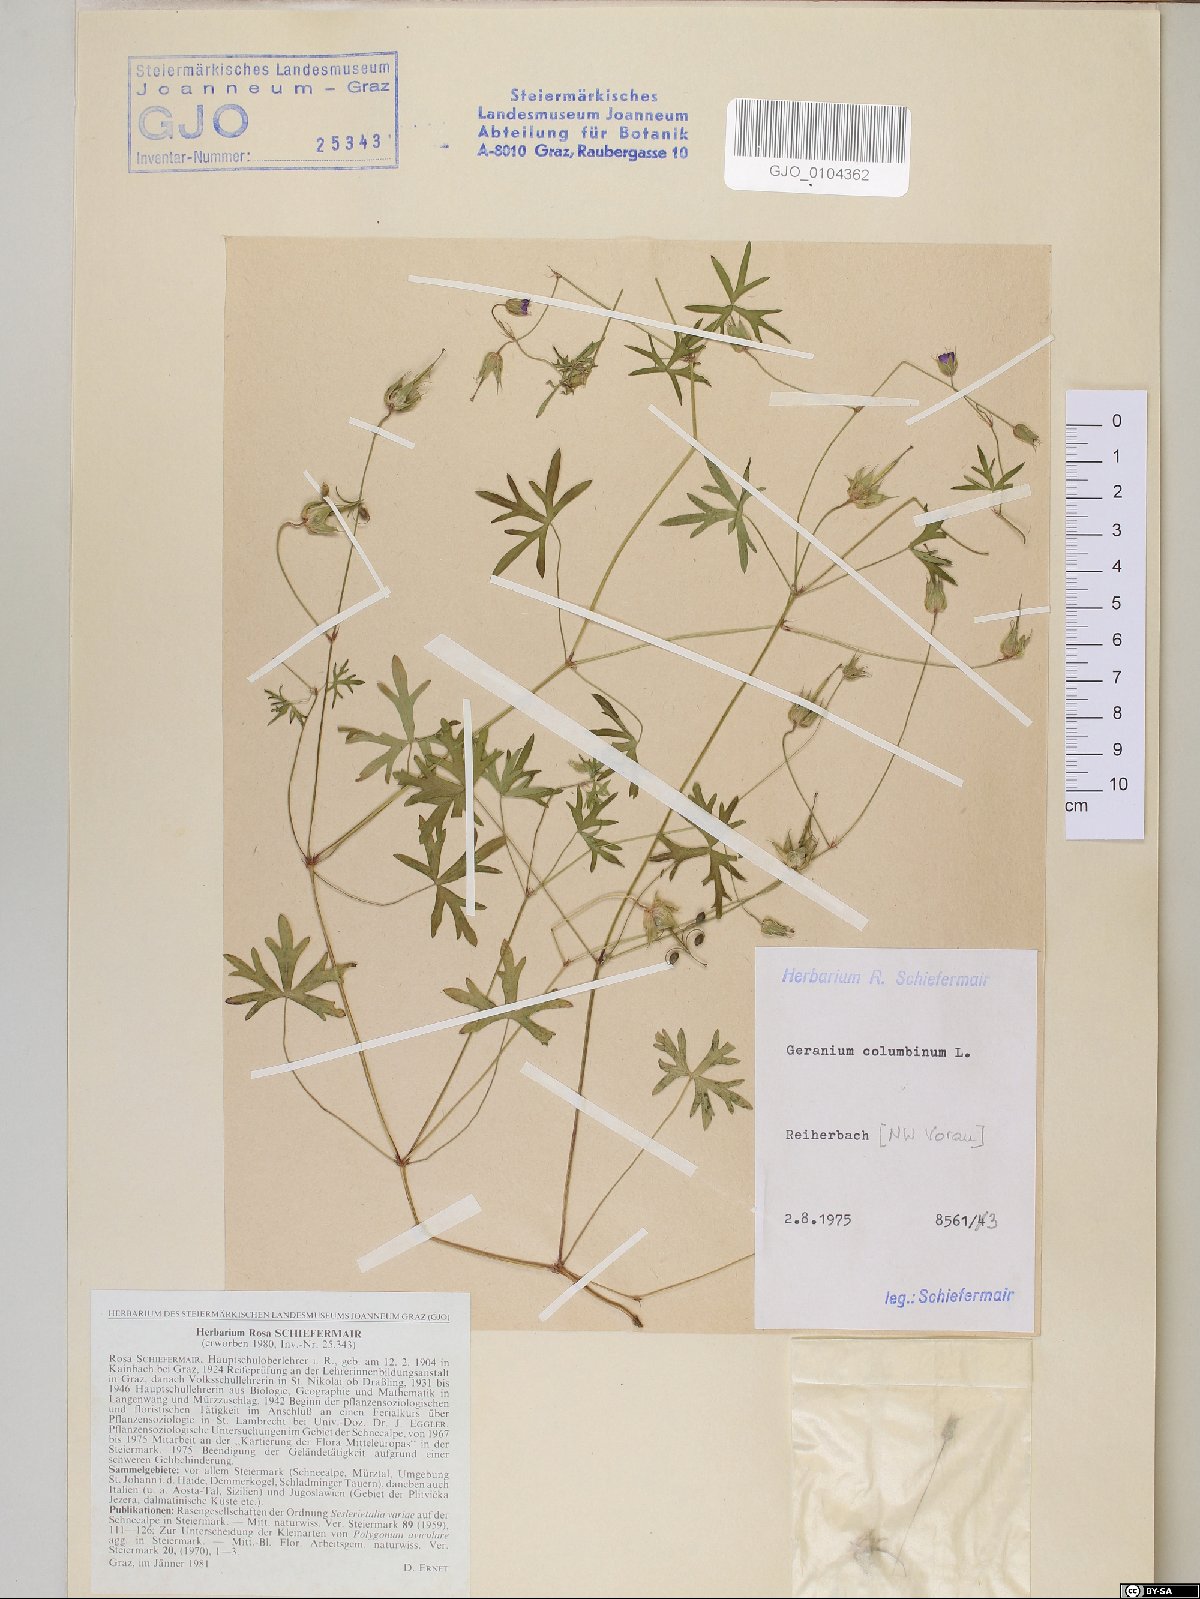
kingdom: Plantae
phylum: Tracheophyta
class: Magnoliopsida
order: Geraniales
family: Geraniaceae
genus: Geranium
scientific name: Geranium columbinum
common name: Long-stalked crane's-bill
